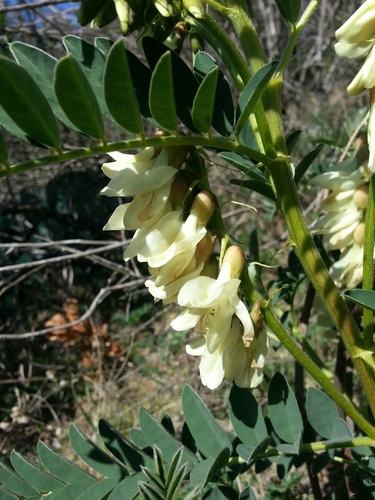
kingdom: Plantae
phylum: Tracheophyta
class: Magnoliopsida
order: Fabales
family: Fabaceae
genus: Erophaca
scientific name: Erophaca baetica
